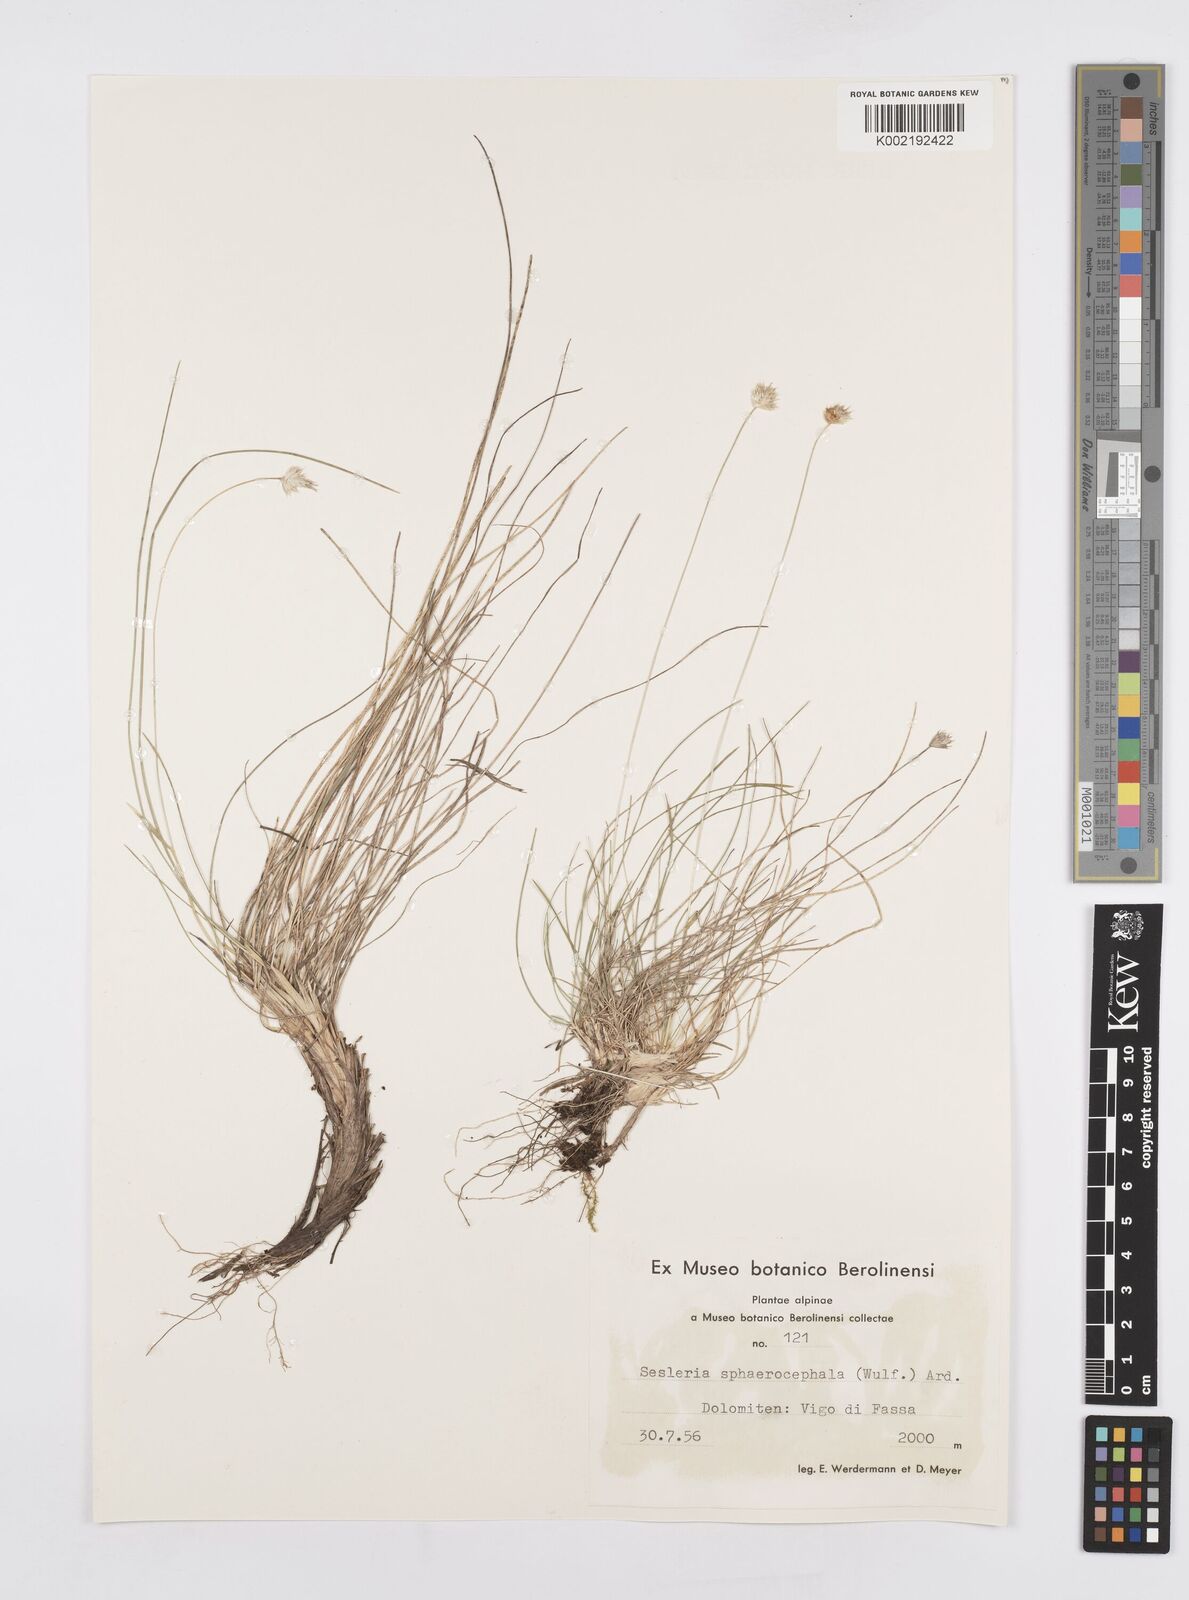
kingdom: Plantae
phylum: Tracheophyta
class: Liliopsida
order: Poales
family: Poaceae
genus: Sesleriella
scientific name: Sesleriella sphaerocephala
